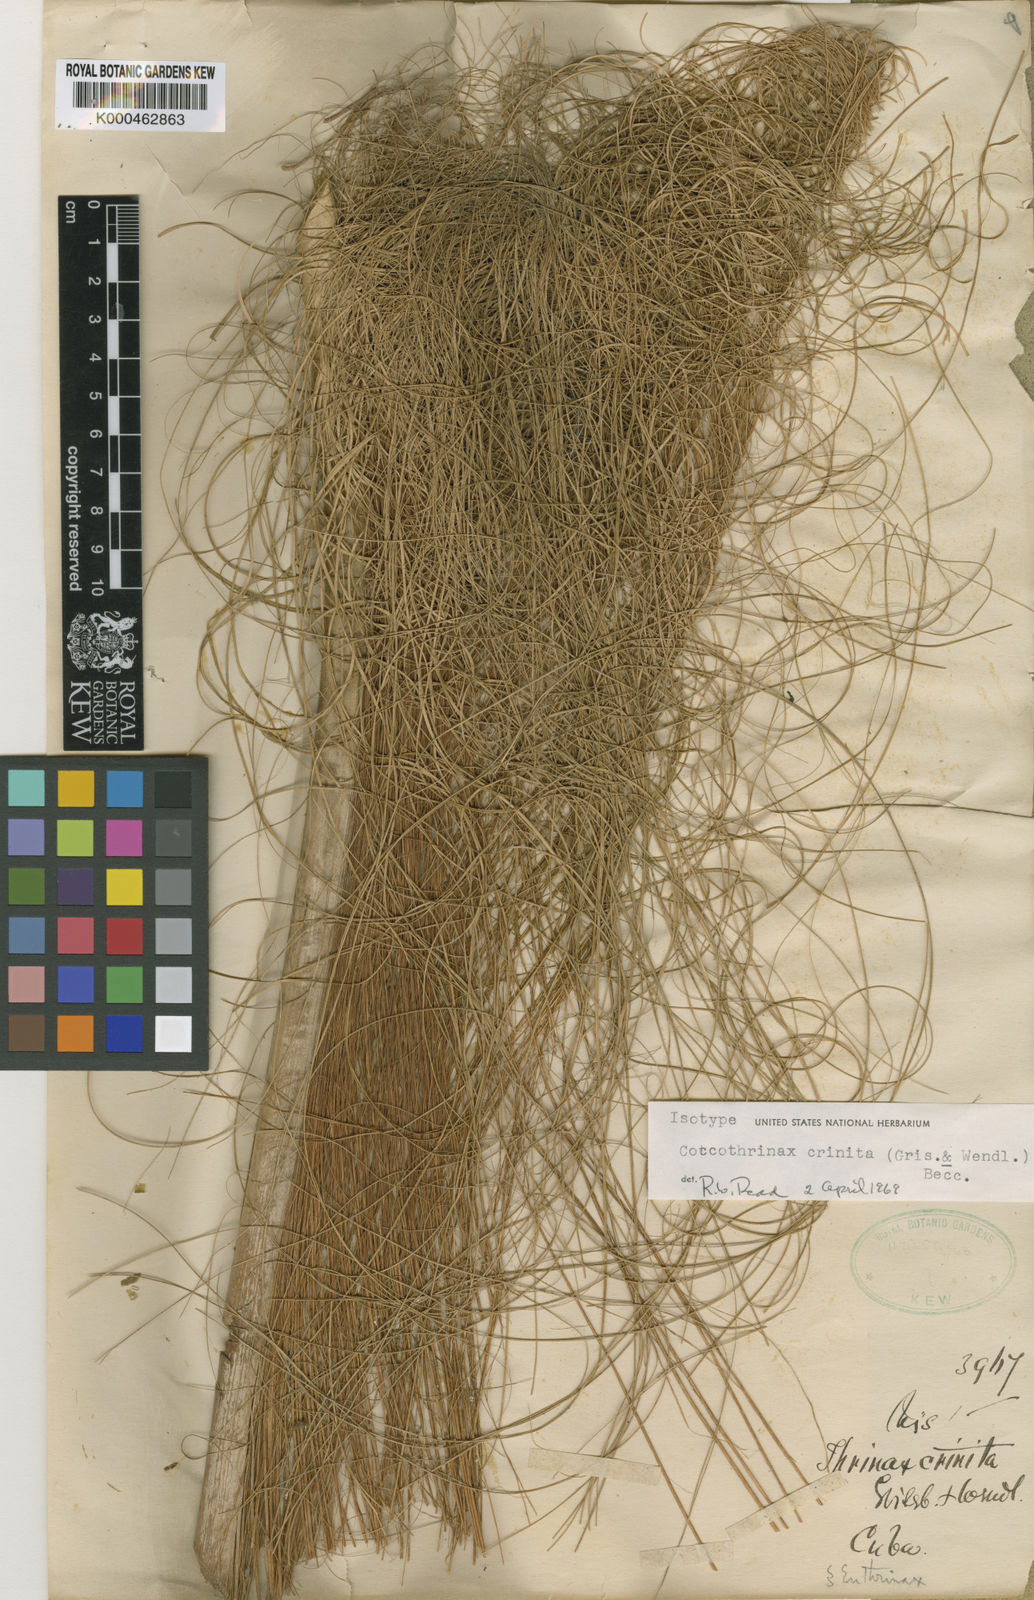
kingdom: Plantae
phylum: Tracheophyta
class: Liliopsida
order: Arecales
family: Arecaceae
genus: Coccothrinax
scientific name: Coccothrinax crinita
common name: Thatch palm
